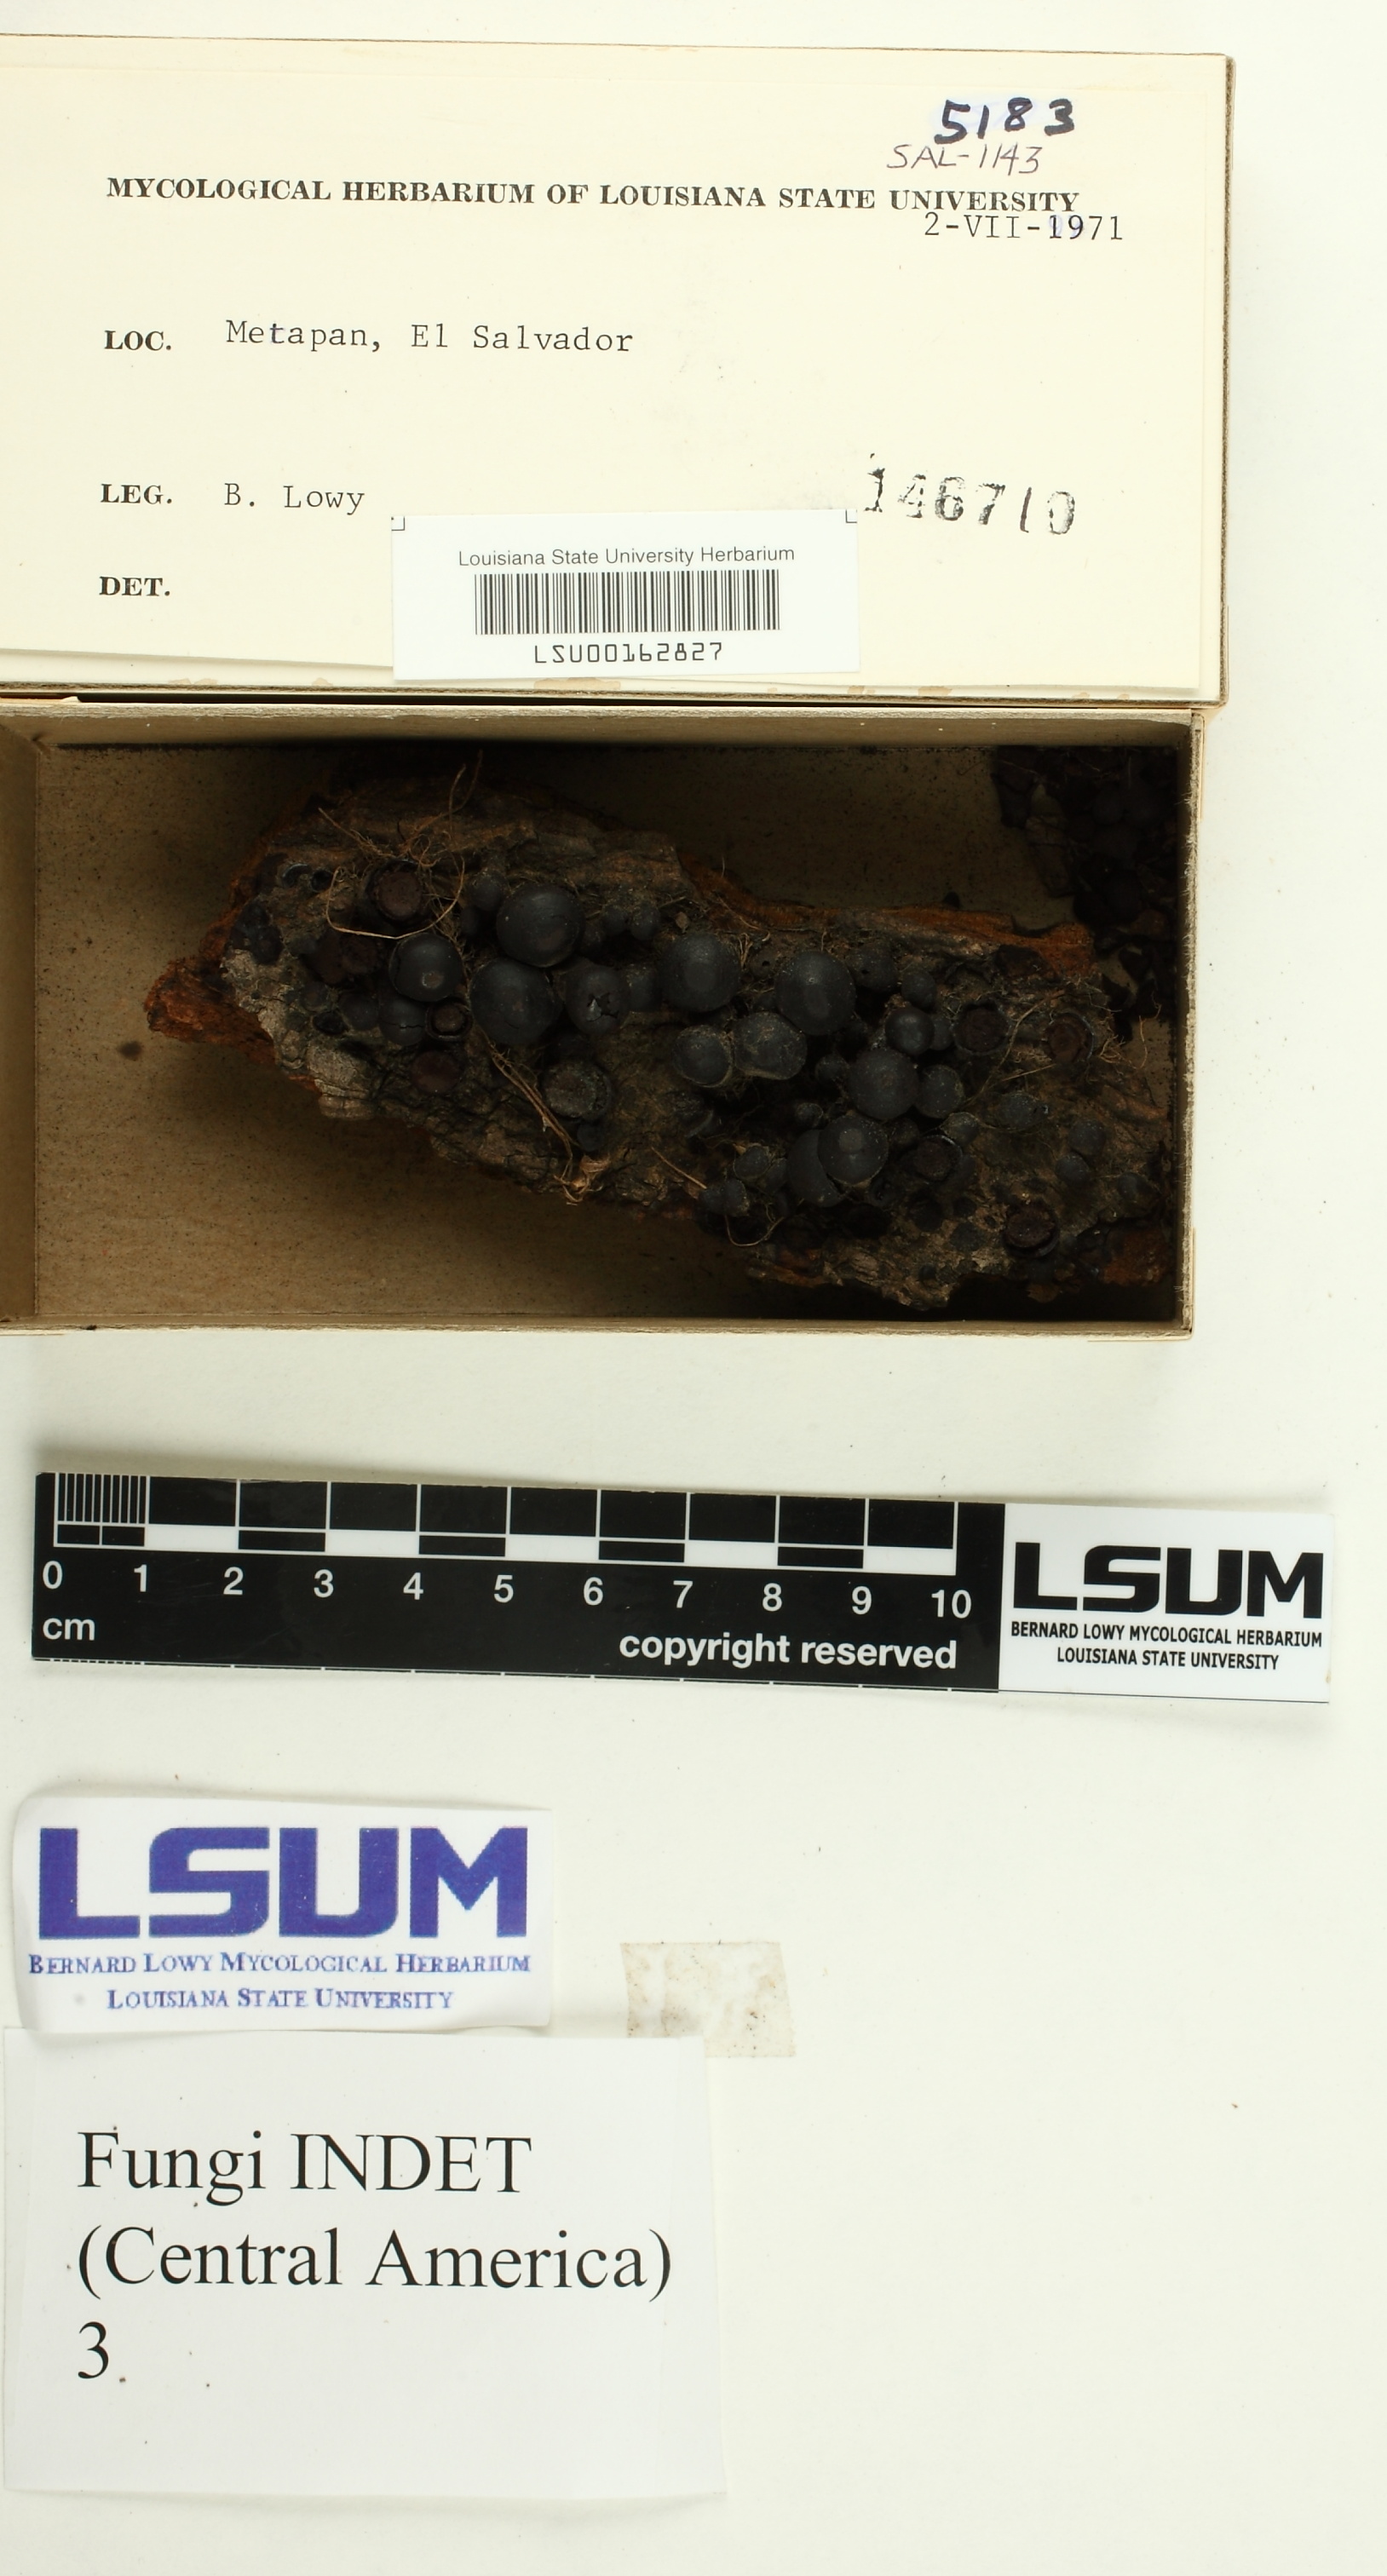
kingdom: Fungi
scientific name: Fungi
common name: Fungi
